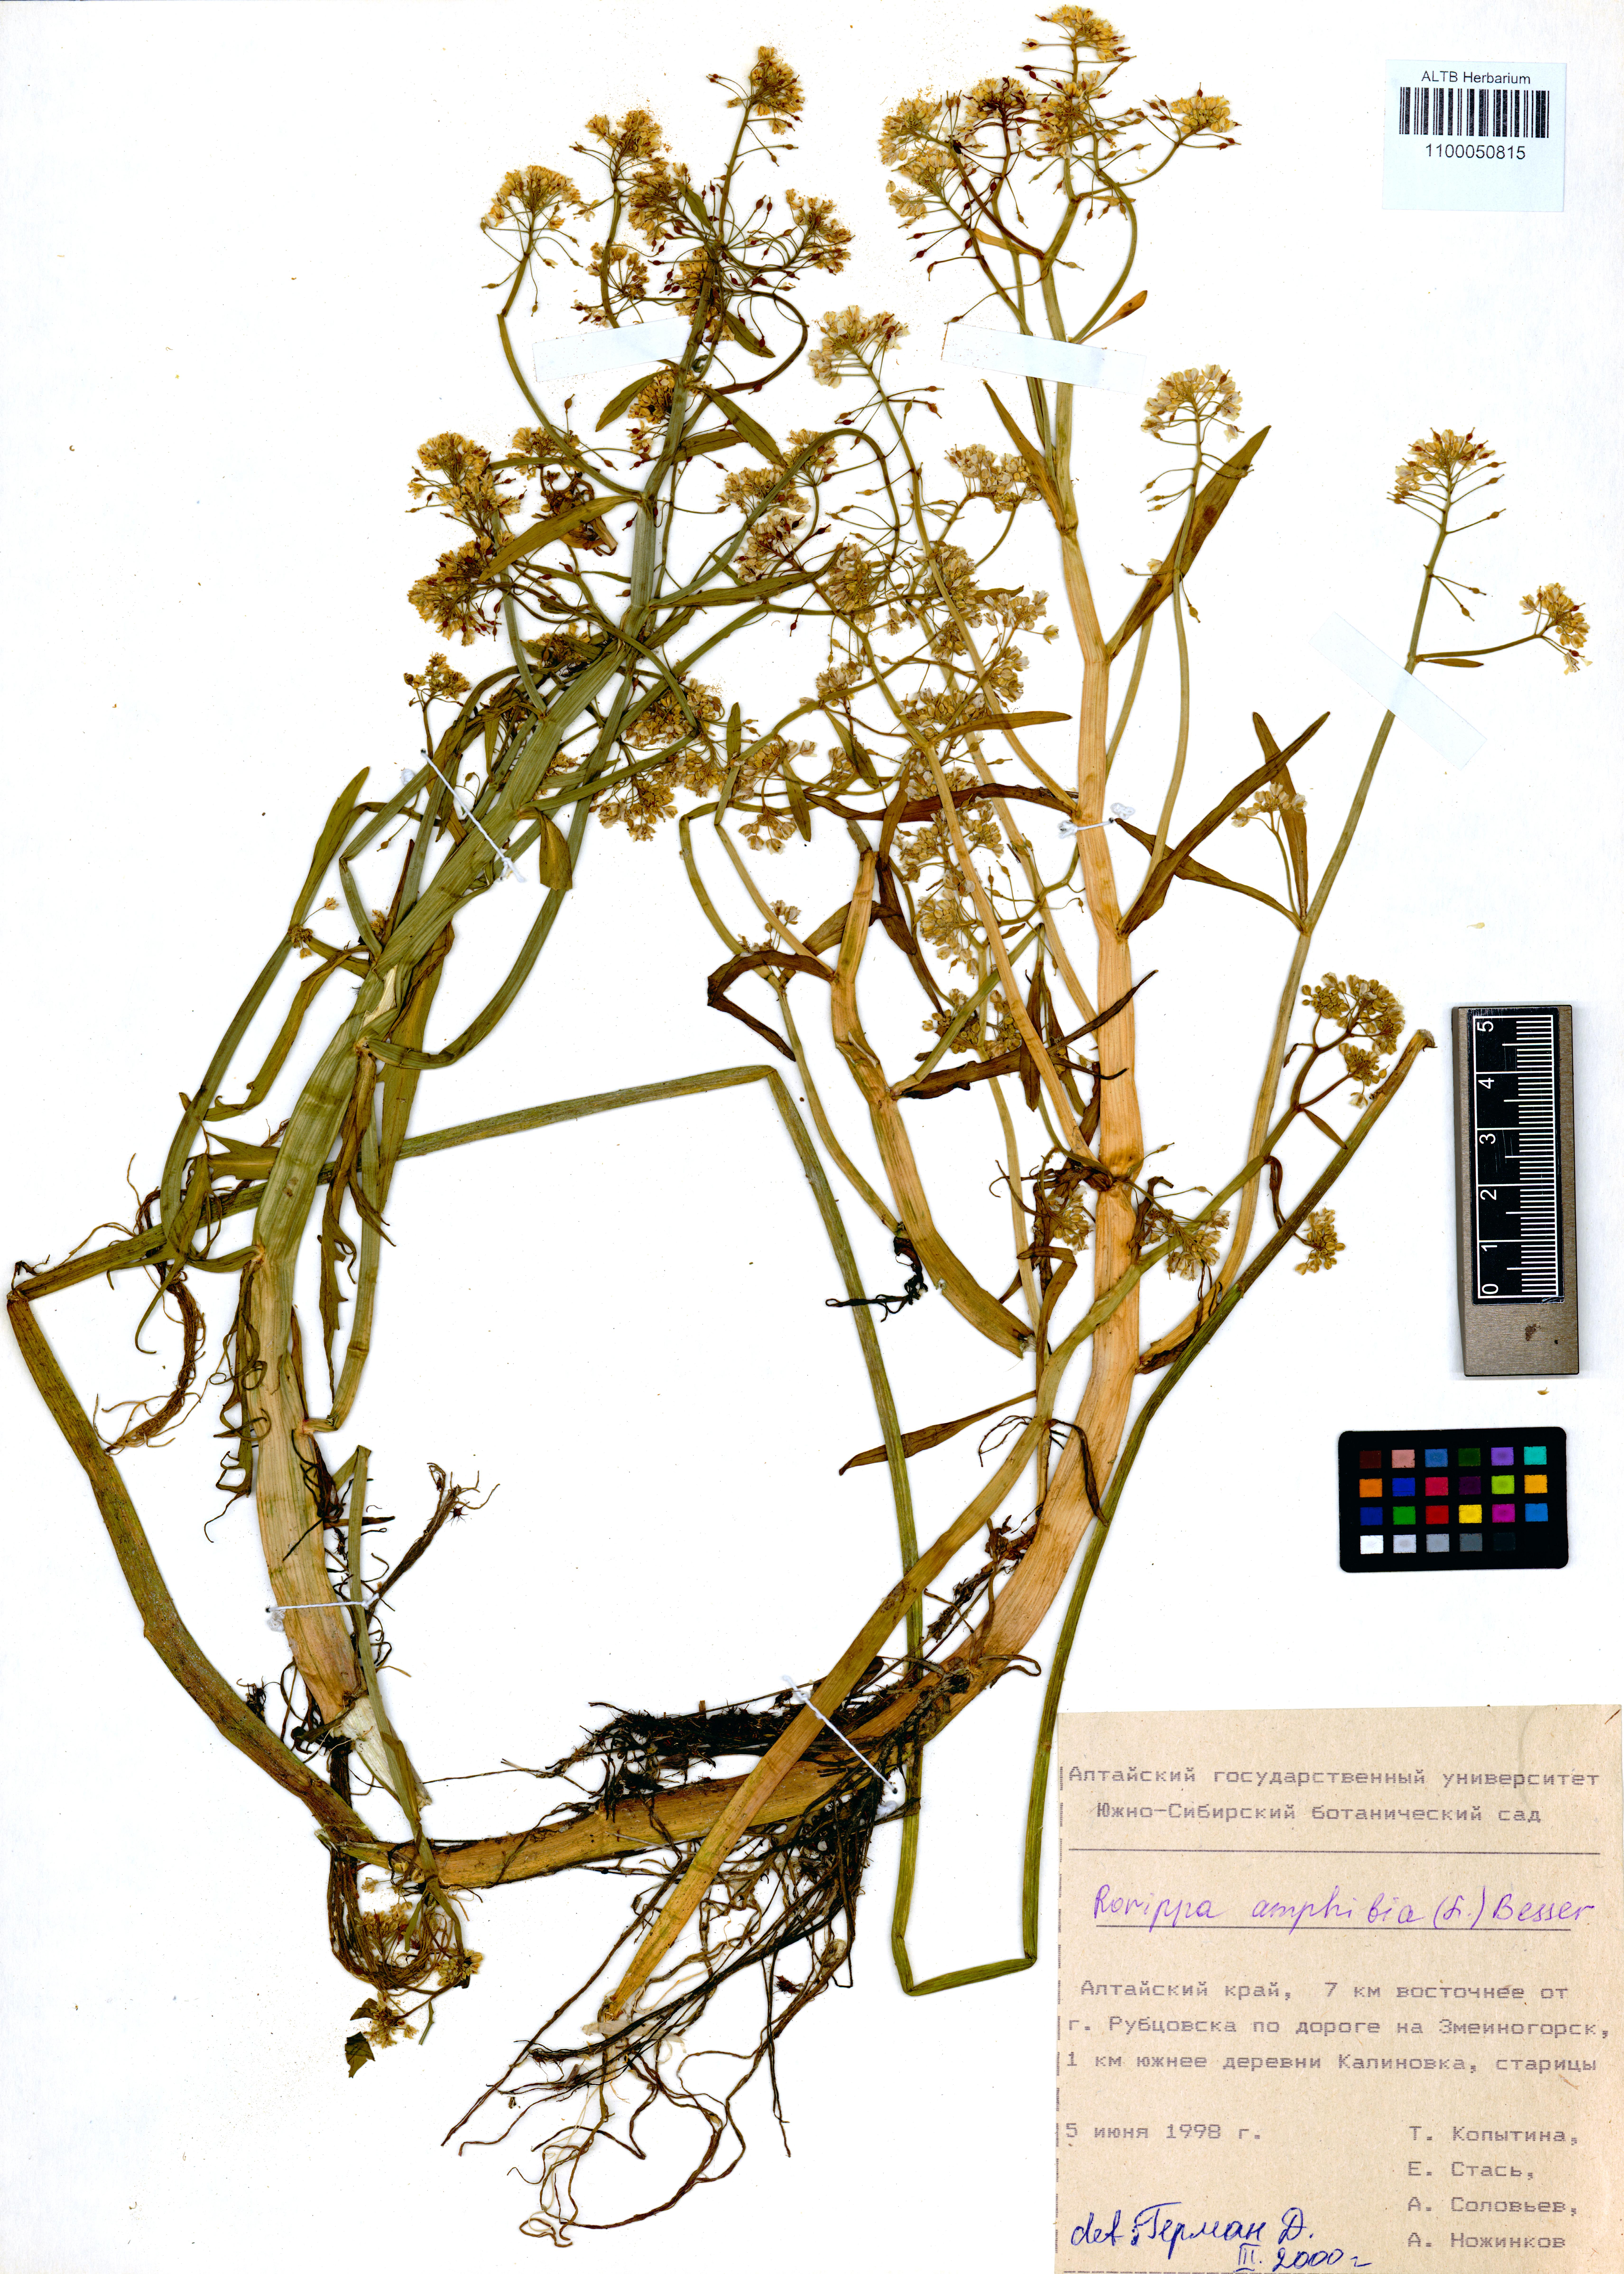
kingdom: Plantae
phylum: Tracheophyta
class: Magnoliopsida
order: Brassicales
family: Brassicaceae
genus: Rorippa
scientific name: Rorippa amphibia
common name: Great yellow-cress
